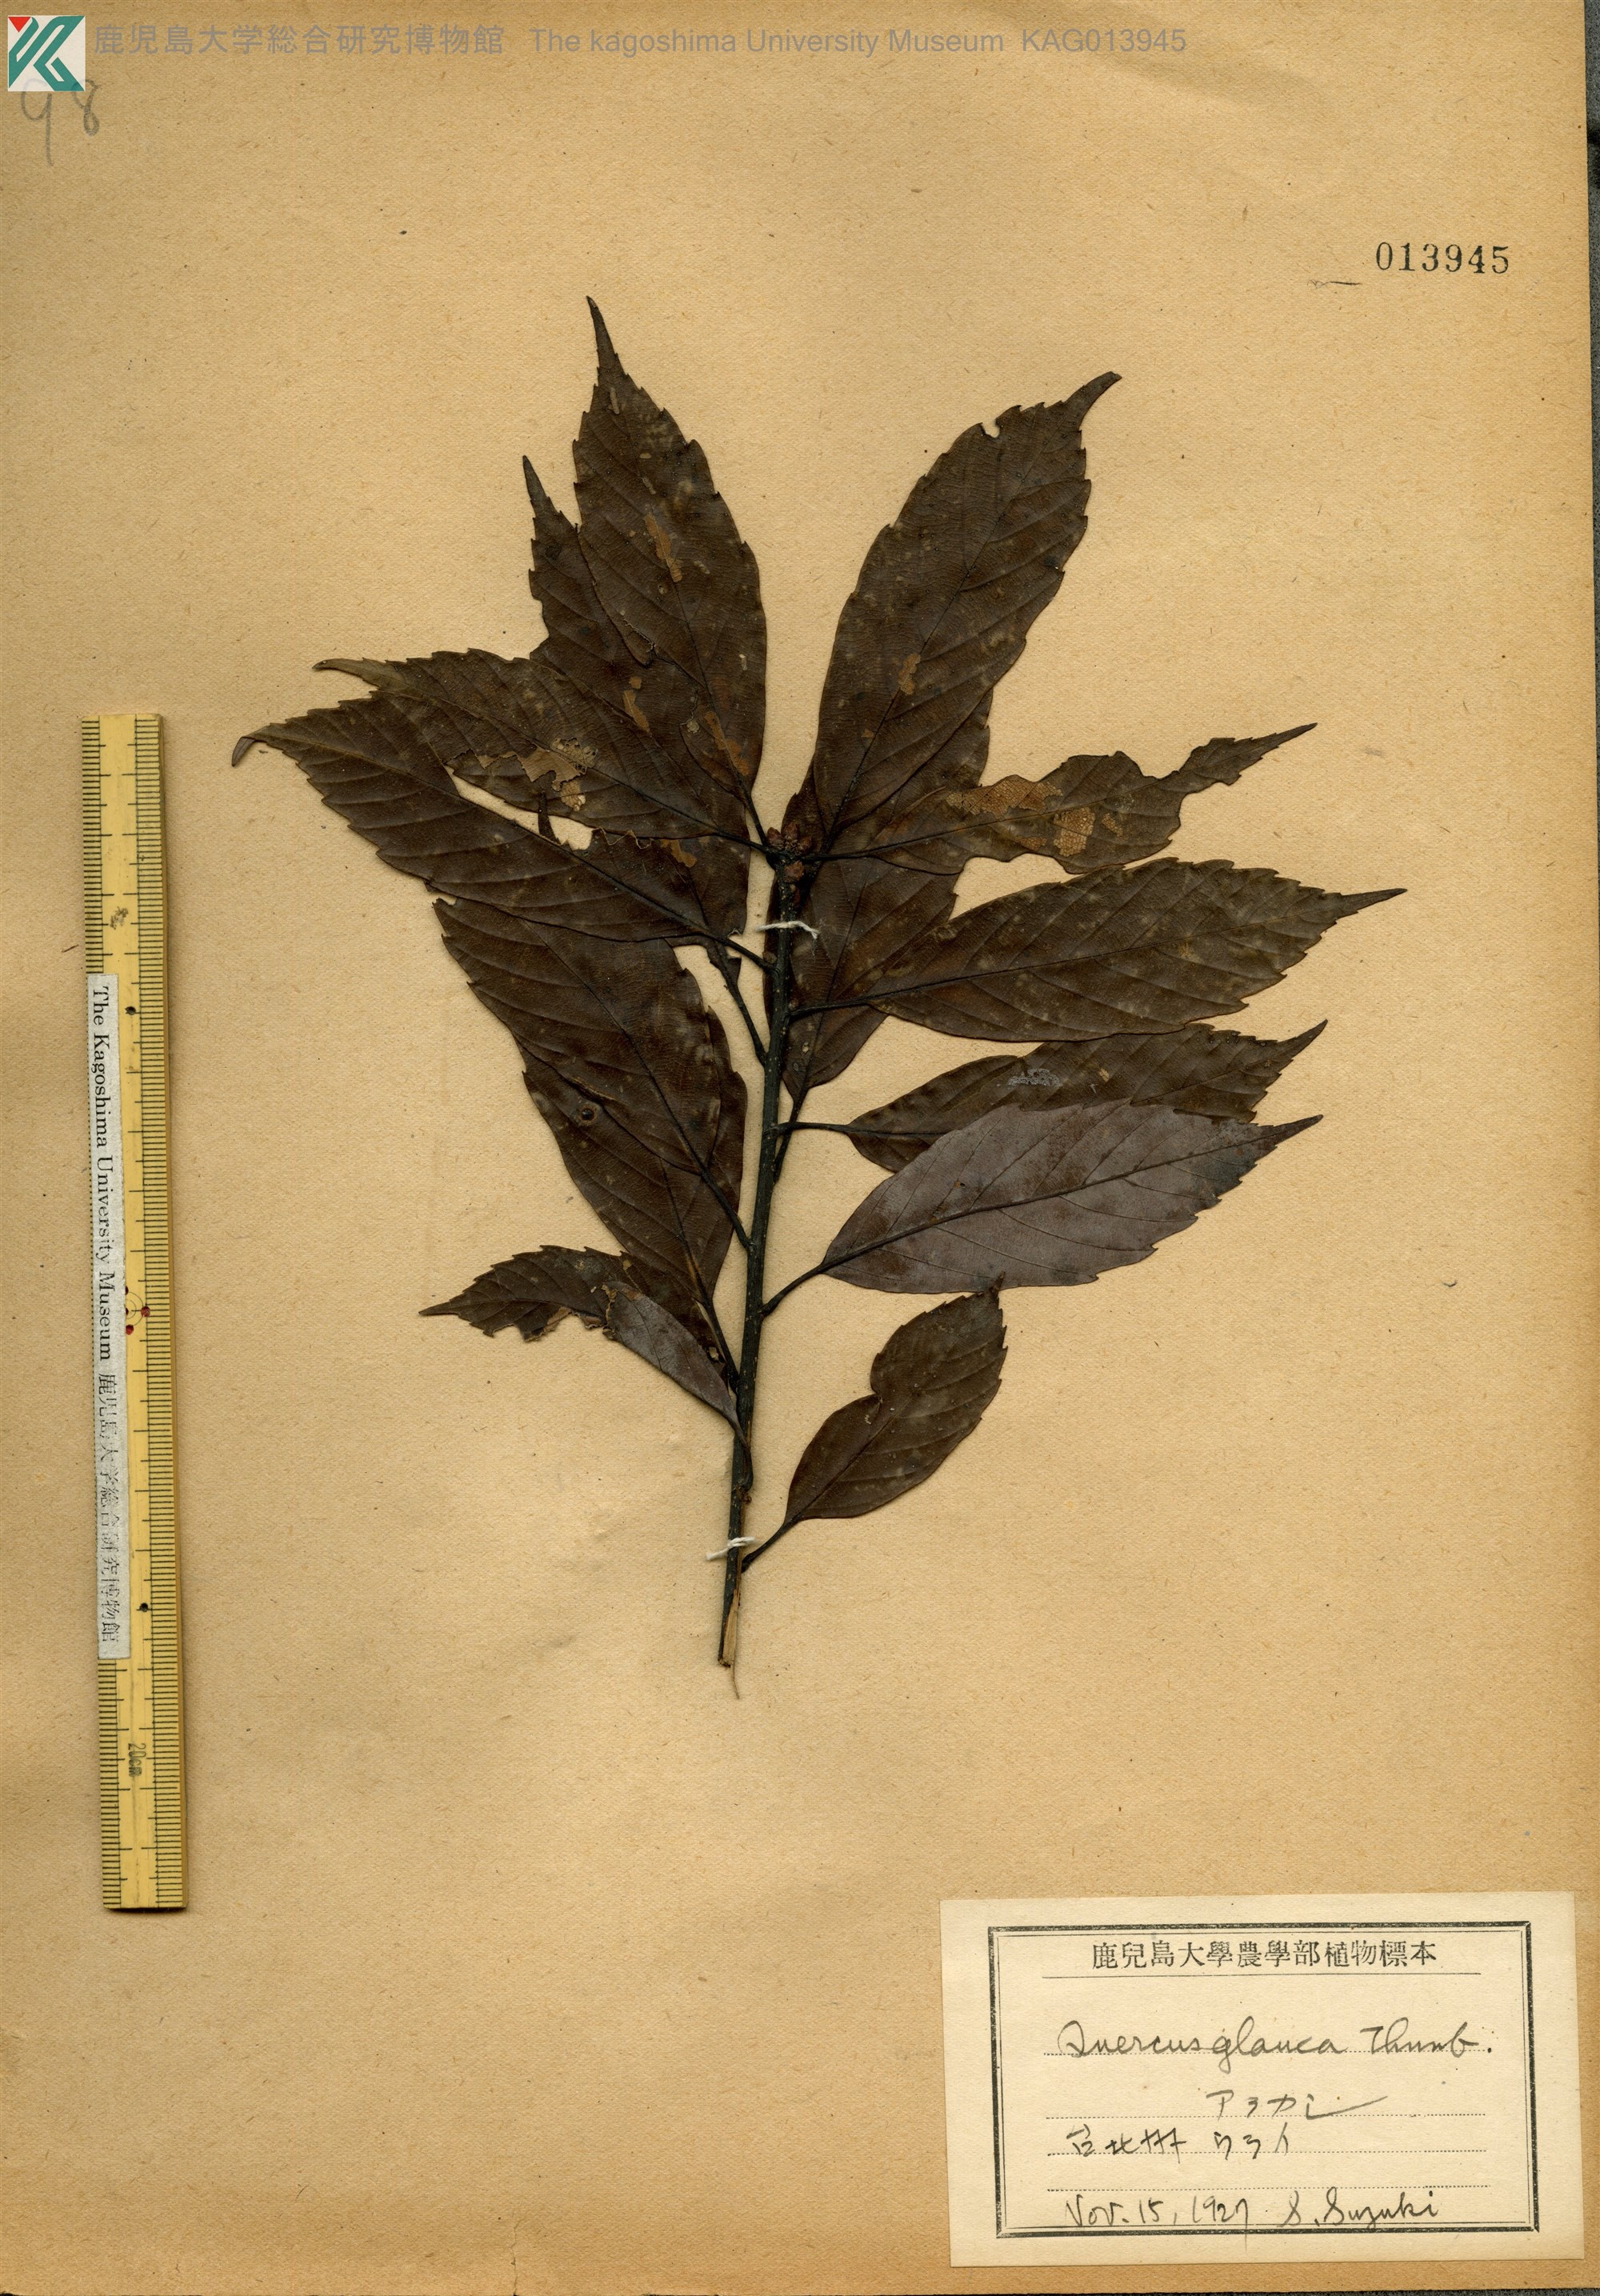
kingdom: Plantae
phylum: Tracheophyta
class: Magnoliopsida
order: Fagales
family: Fagaceae
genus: Quercus
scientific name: Quercus glauca
